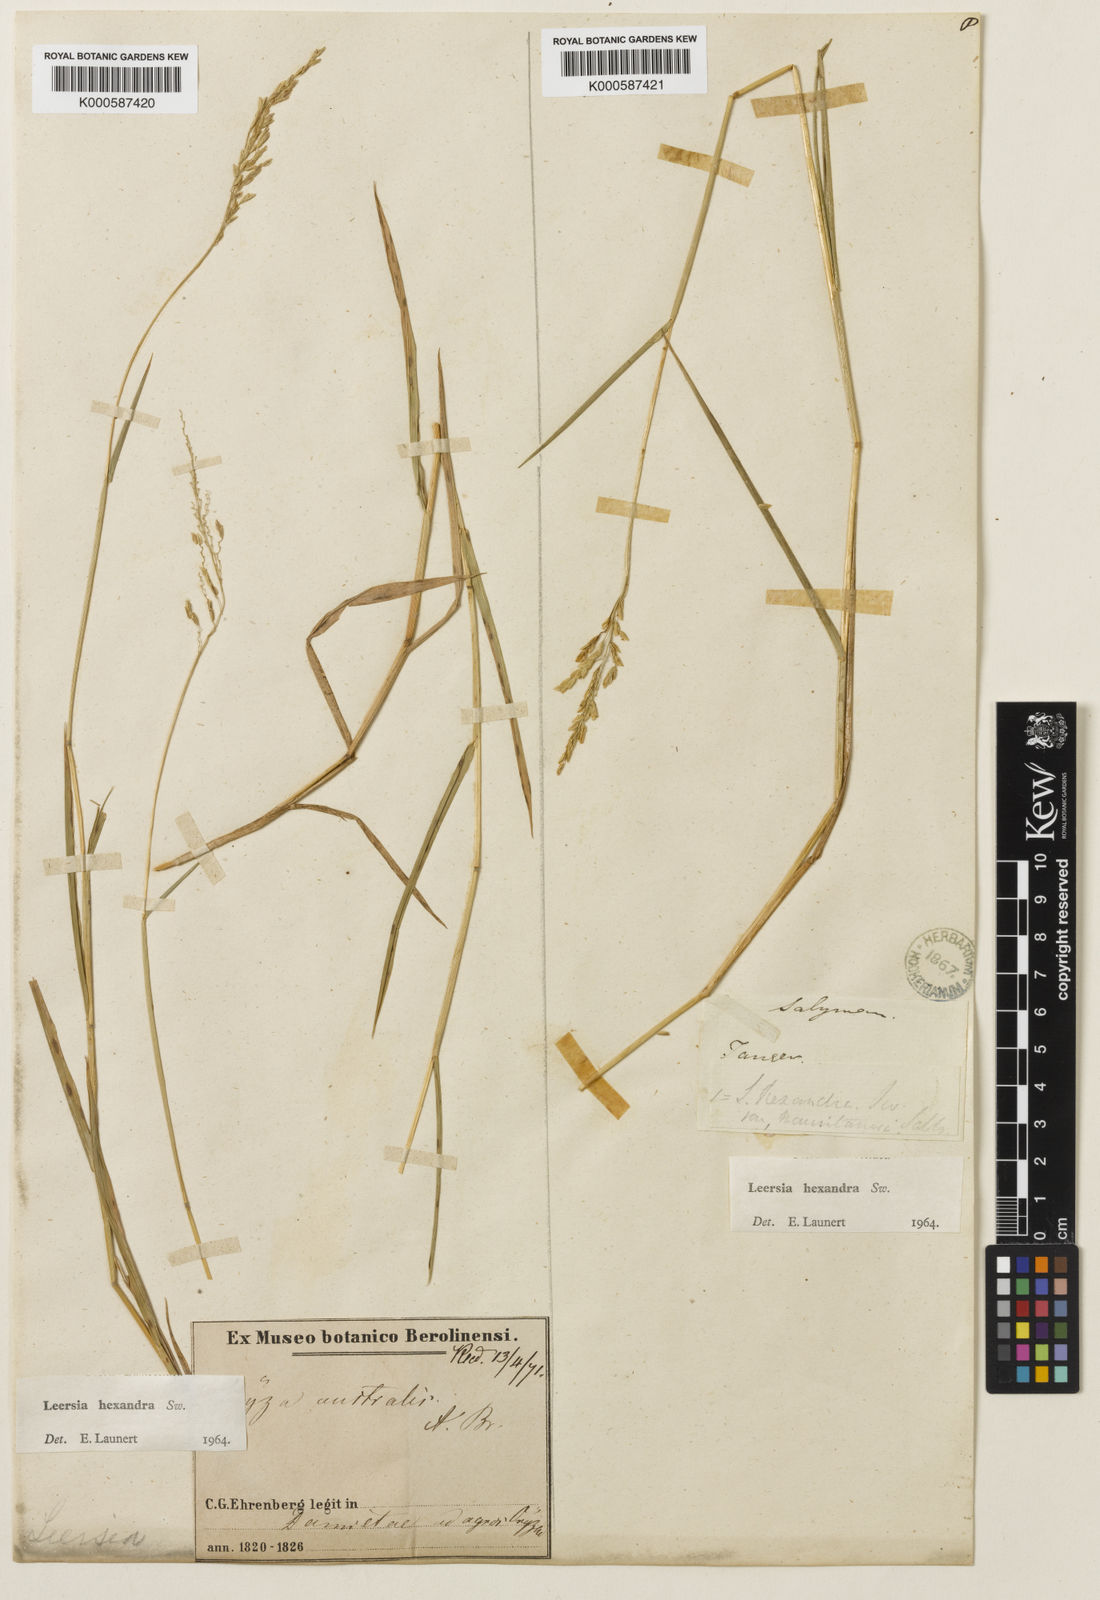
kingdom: Plantae
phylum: Tracheophyta
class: Liliopsida
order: Poales
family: Poaceae
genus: Leersia
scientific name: Leersia hexandra
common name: Southern cut grass
